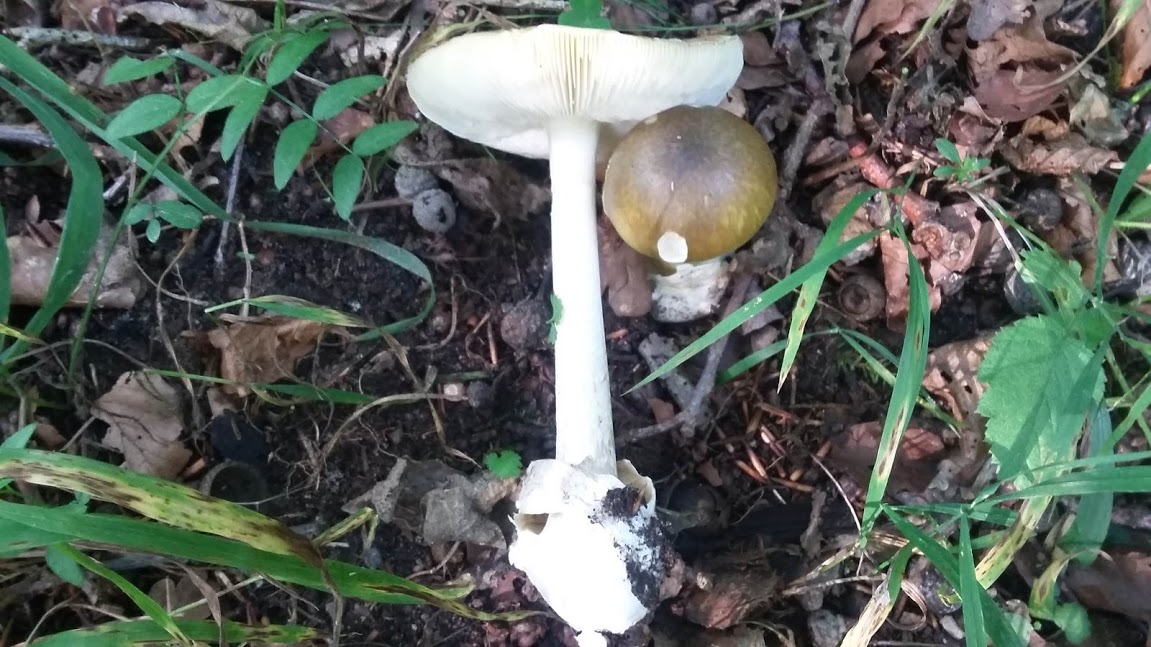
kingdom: Fungi
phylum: Basidiomycota
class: Agaricomycetes
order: Agaricales
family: Amanitaceae
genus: Amanita
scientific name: Amanita phalloides
